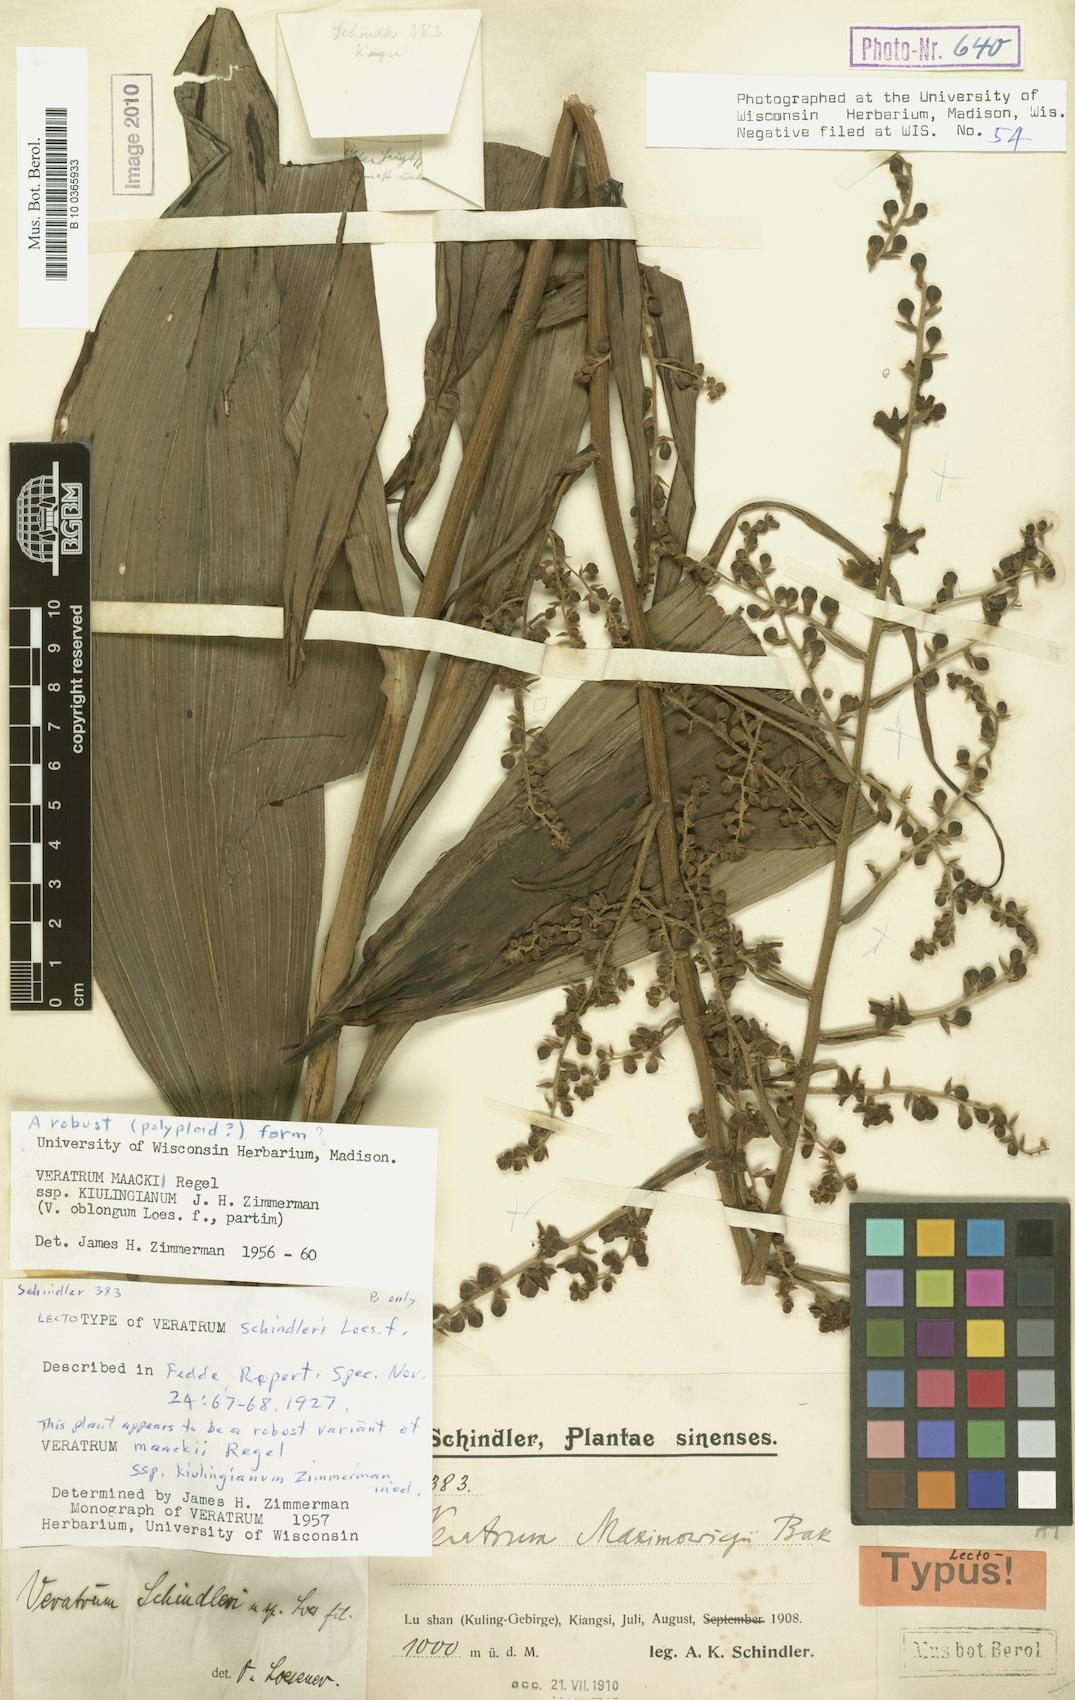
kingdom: Plantae
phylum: Tracheophyta
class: Liliopsida
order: Liliales
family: Melanthiaceae
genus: Veratrum
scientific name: Veratrum maackii
